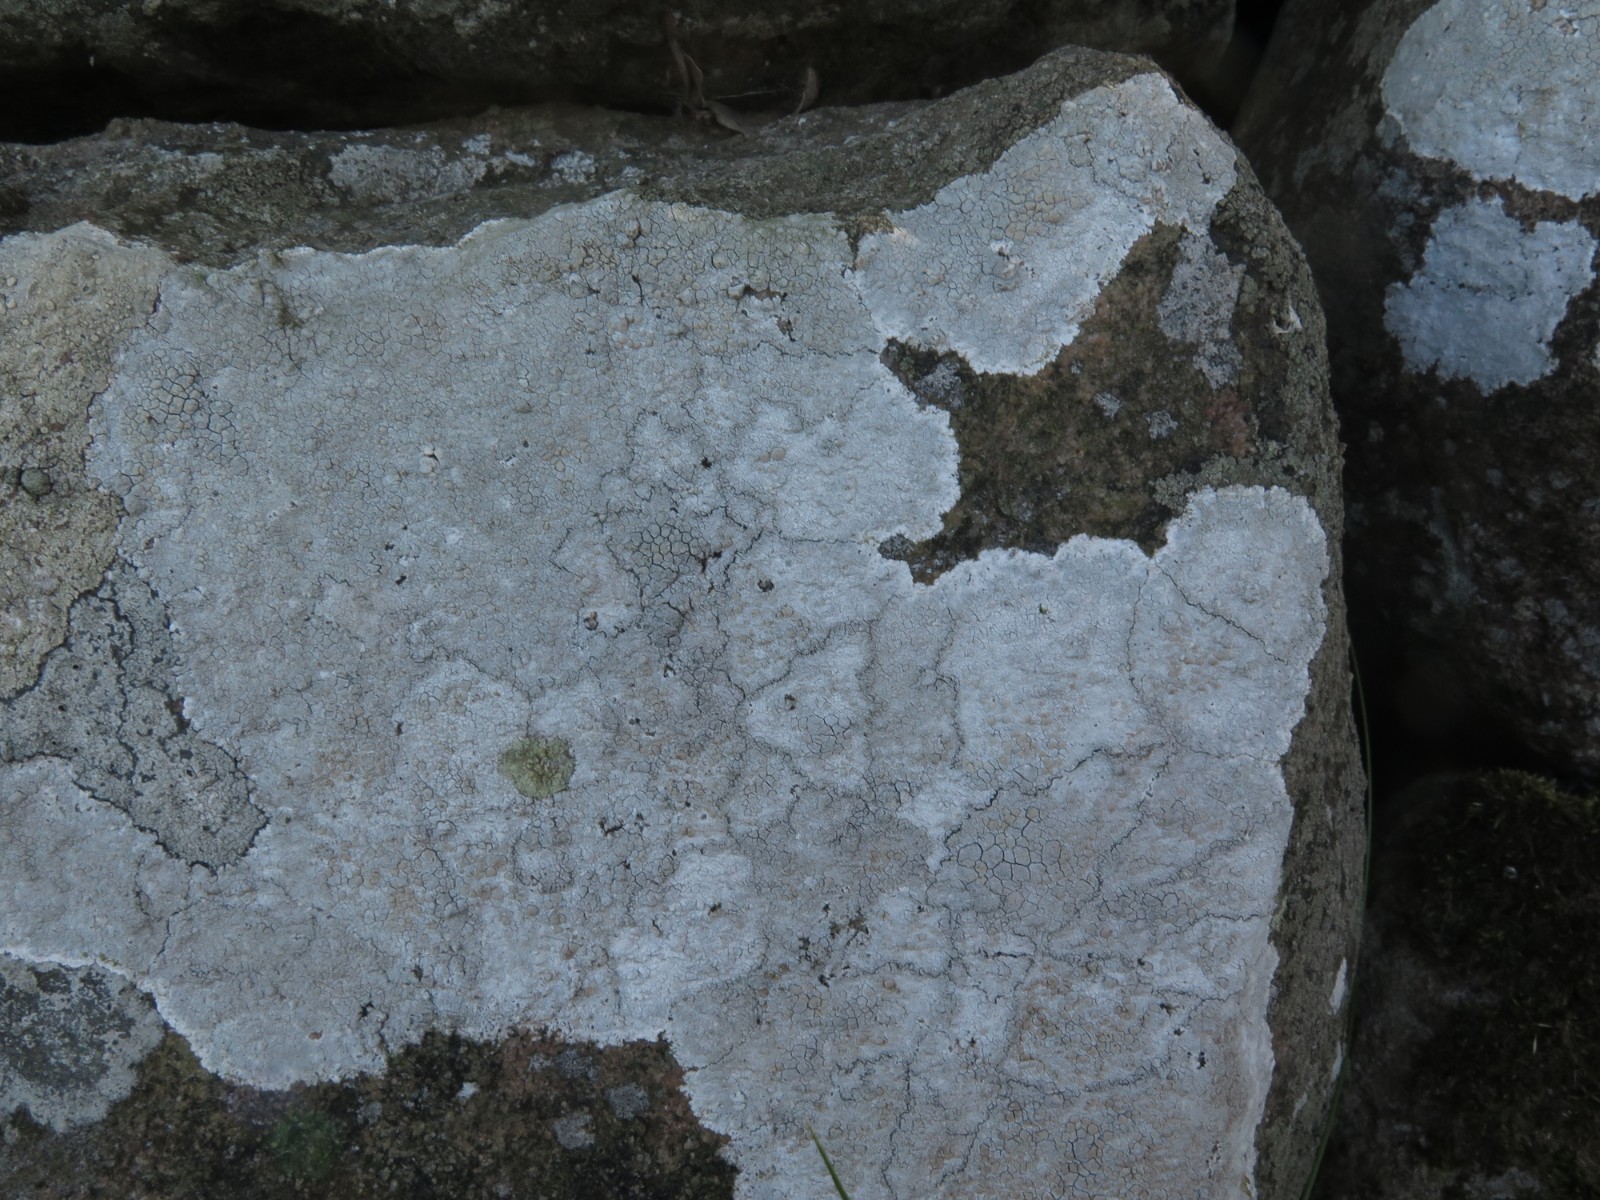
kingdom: Fungi
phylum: Ascomycota
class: Lecanoromycetes
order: Lecanorales
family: Lecanoraceae
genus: Glaucomaria
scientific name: Glaucomaria rupicola
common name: stengærde-kantskivelav
